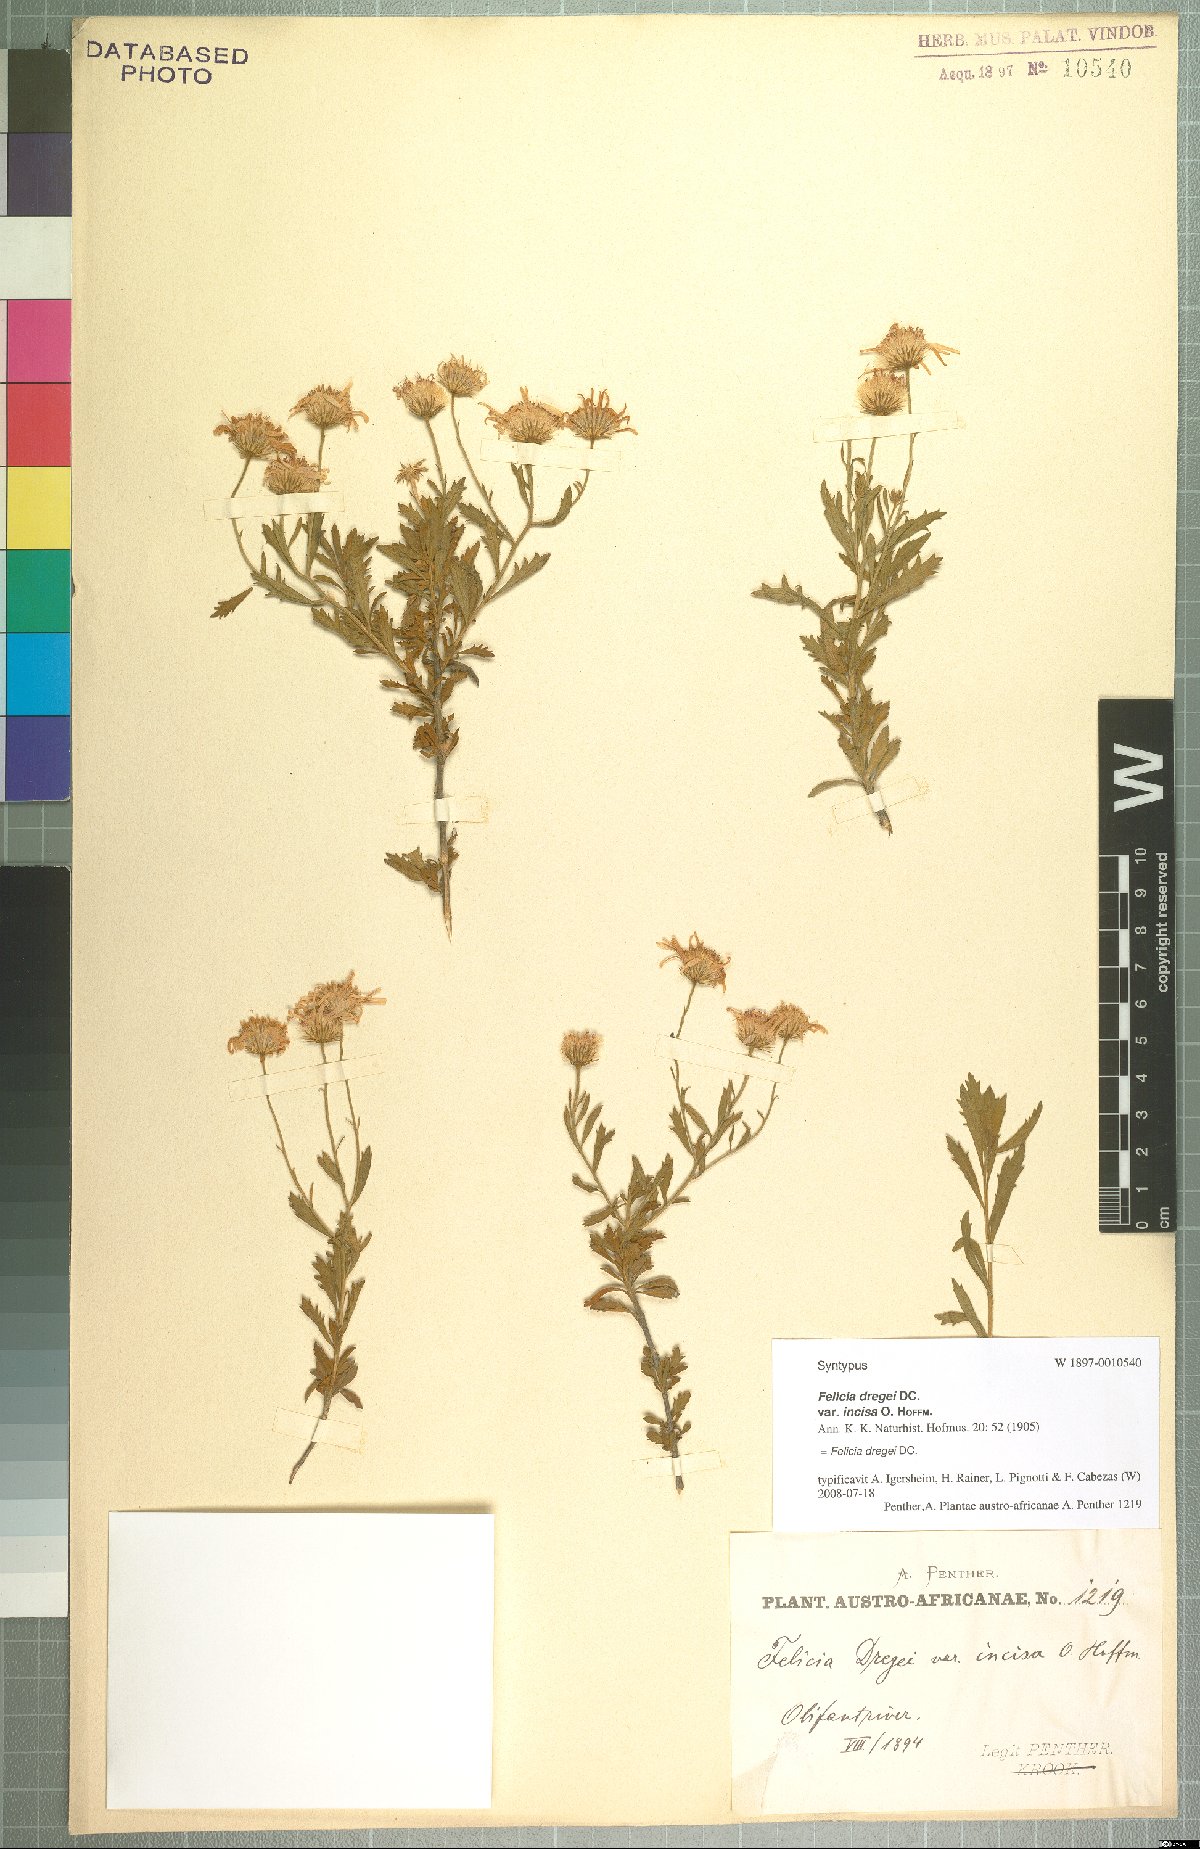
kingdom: Plantae
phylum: Tracheophyta
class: Magnoliopsida
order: Asterales
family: Asteraceae
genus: Felicia
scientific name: Felicia dregei
